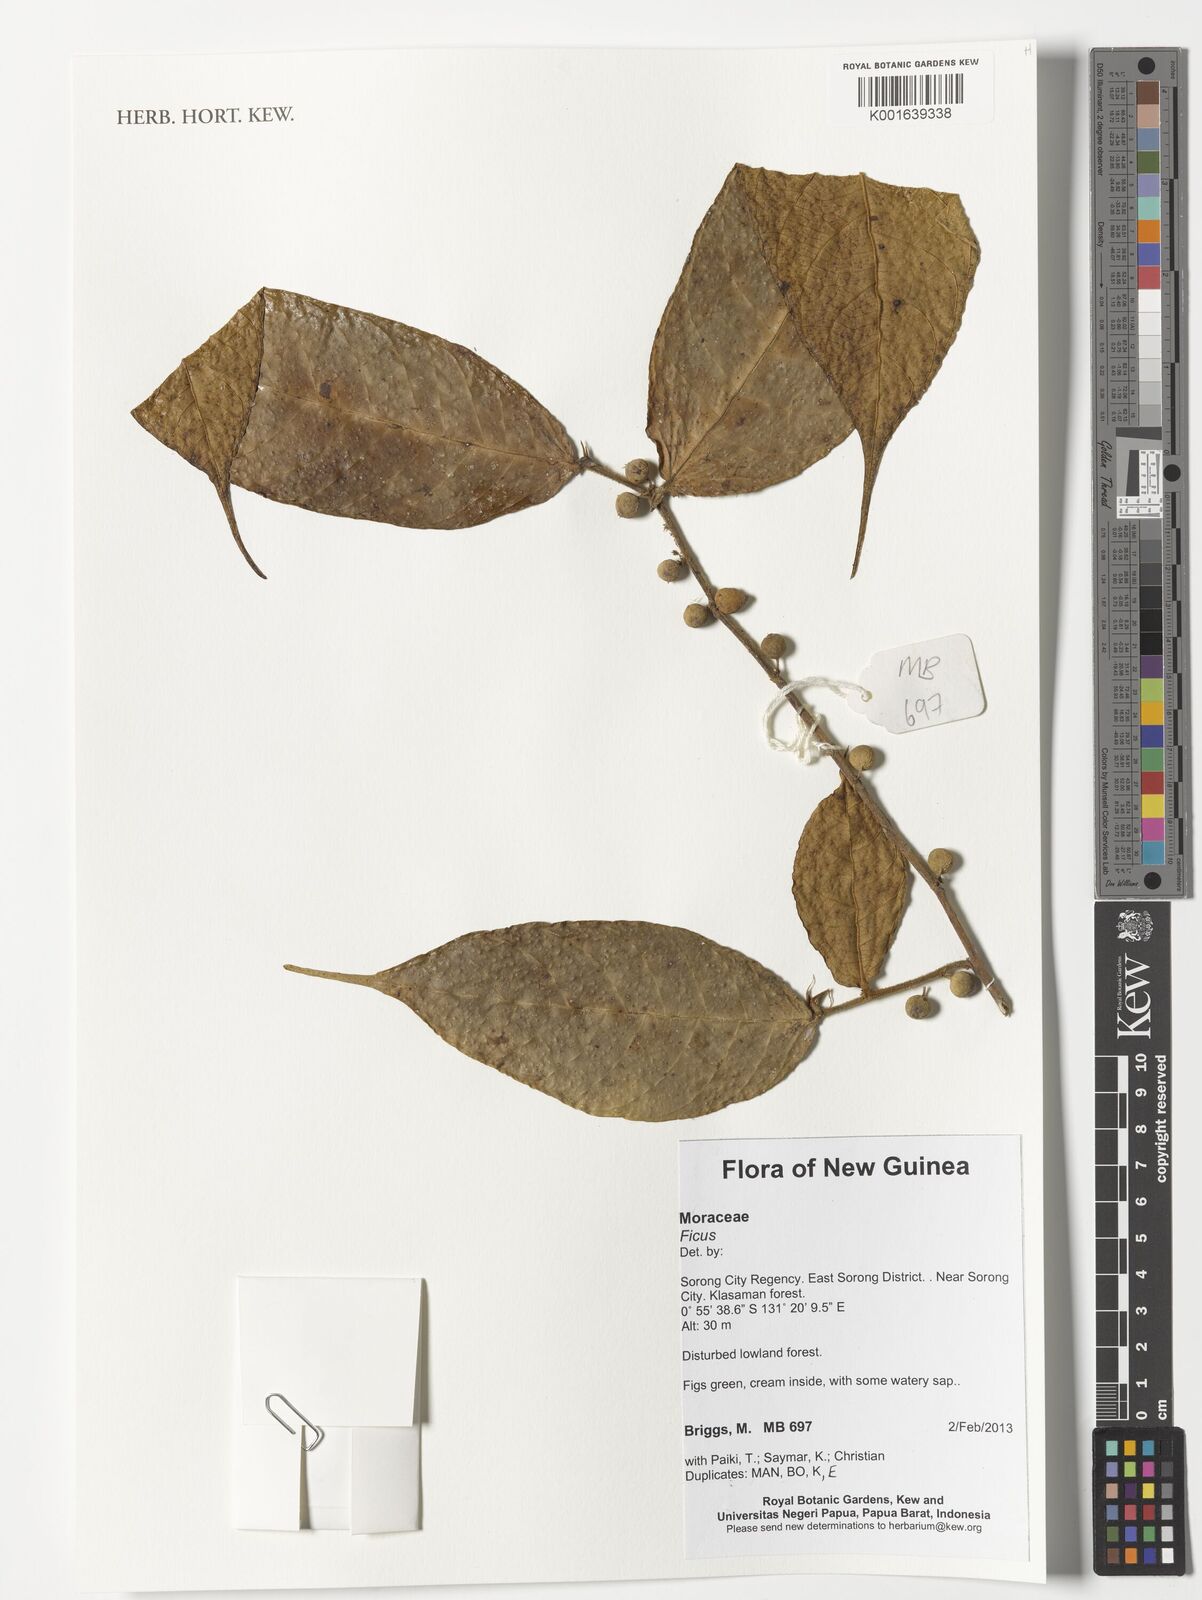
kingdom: Plantae
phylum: Tracheophyta
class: Magnoliopsida
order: Rosales
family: Moraceae
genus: Ficus
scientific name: Ficus
